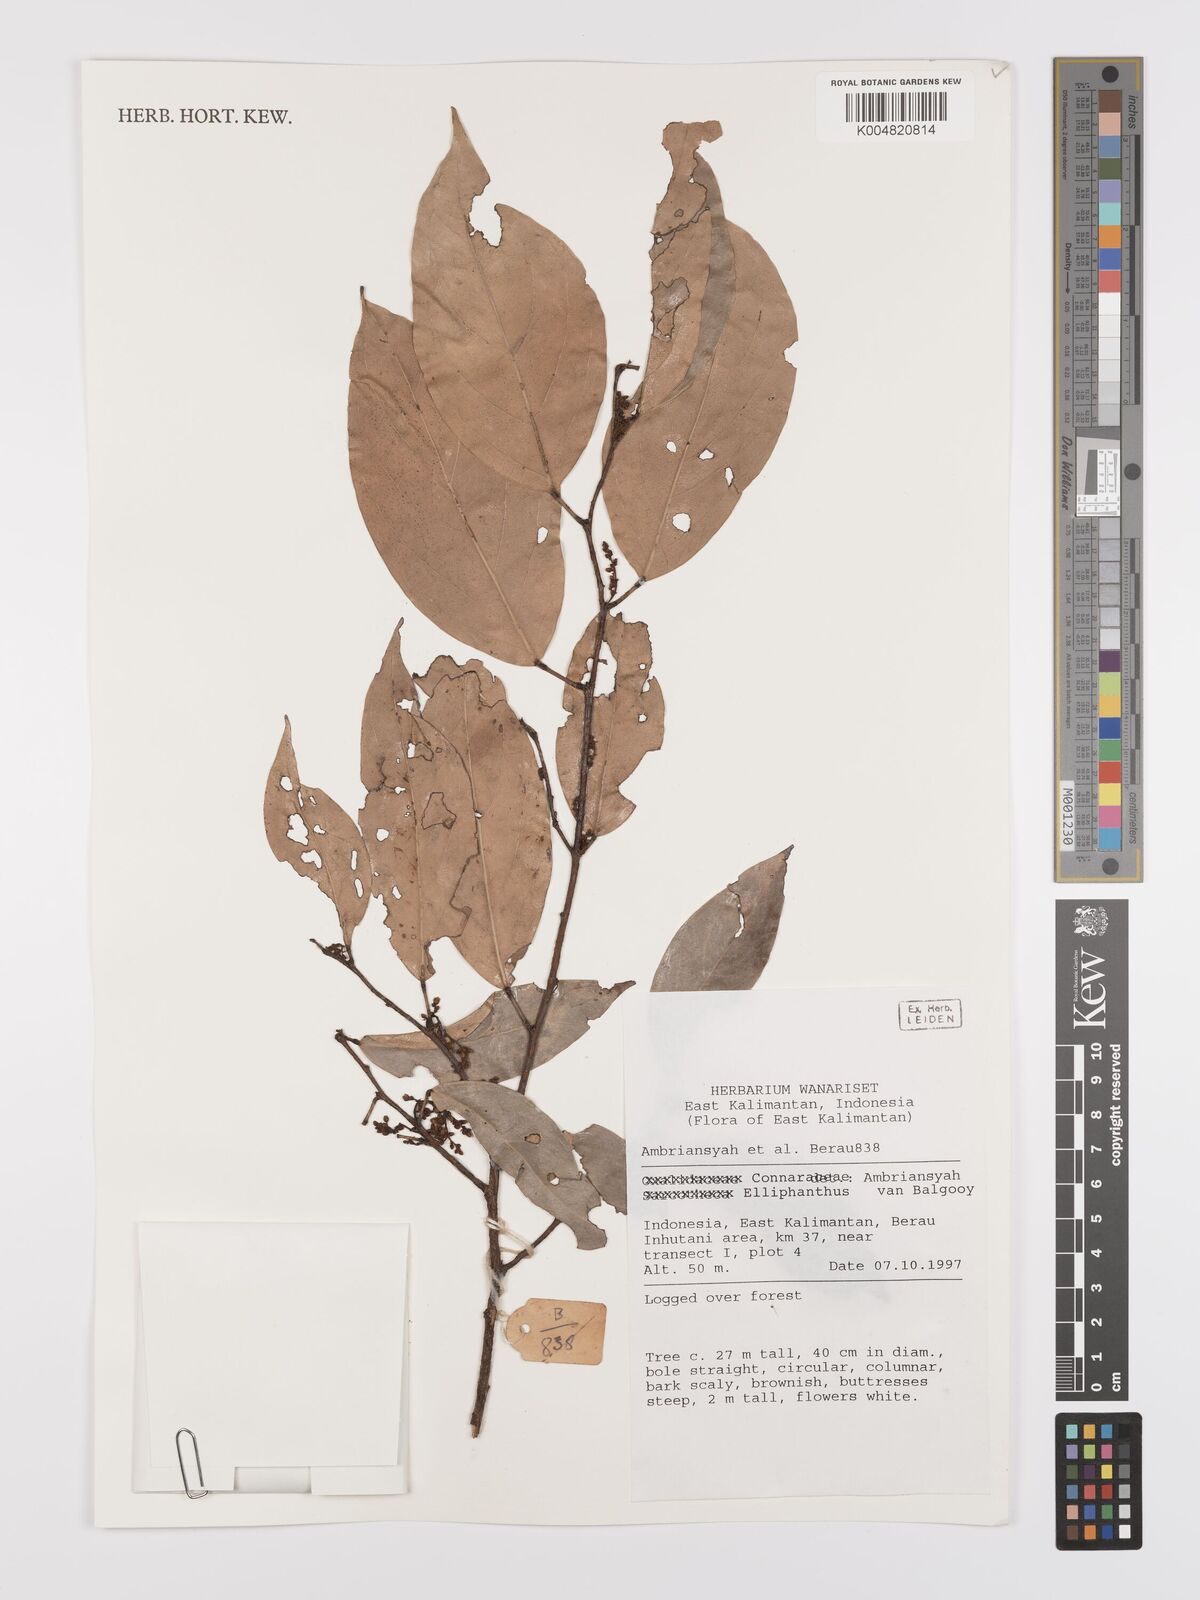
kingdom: Plantae
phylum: Tracheophyta
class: Magnoliopsida
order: Oxalidales
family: Connaraceae
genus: Ellipanthus
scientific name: Ellipanthus
